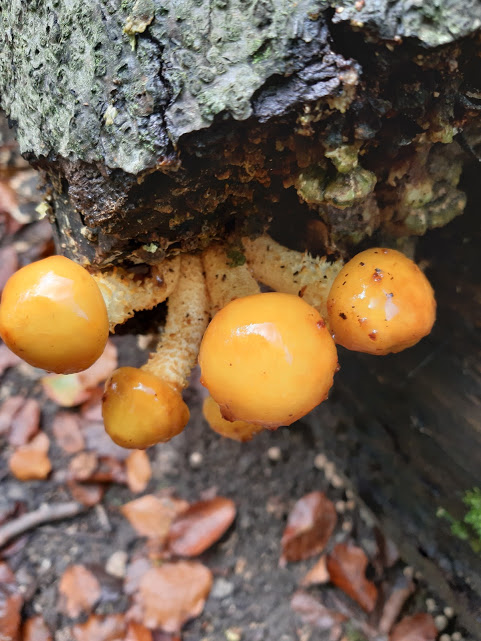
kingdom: Fungi
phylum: Basidiomycota
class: Agaricomycetes
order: Agaricales
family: Strophariaceae
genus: Pholiota
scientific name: Pholiota adiposa
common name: højtsiddende skælhat
